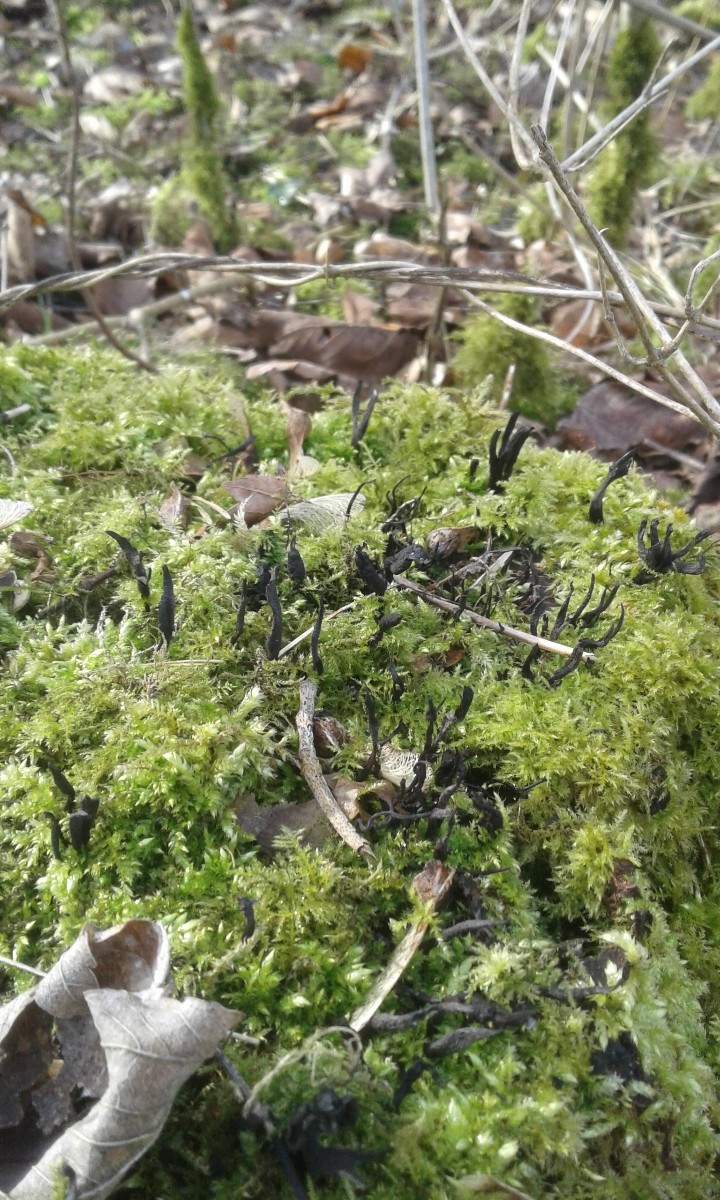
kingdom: Fungi
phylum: Ascomycota
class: Sordariomycetes
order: Xylariales
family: Xylariaceae
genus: Xylaria
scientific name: Xylaria hypoxylon
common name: grenet stødsvamp
